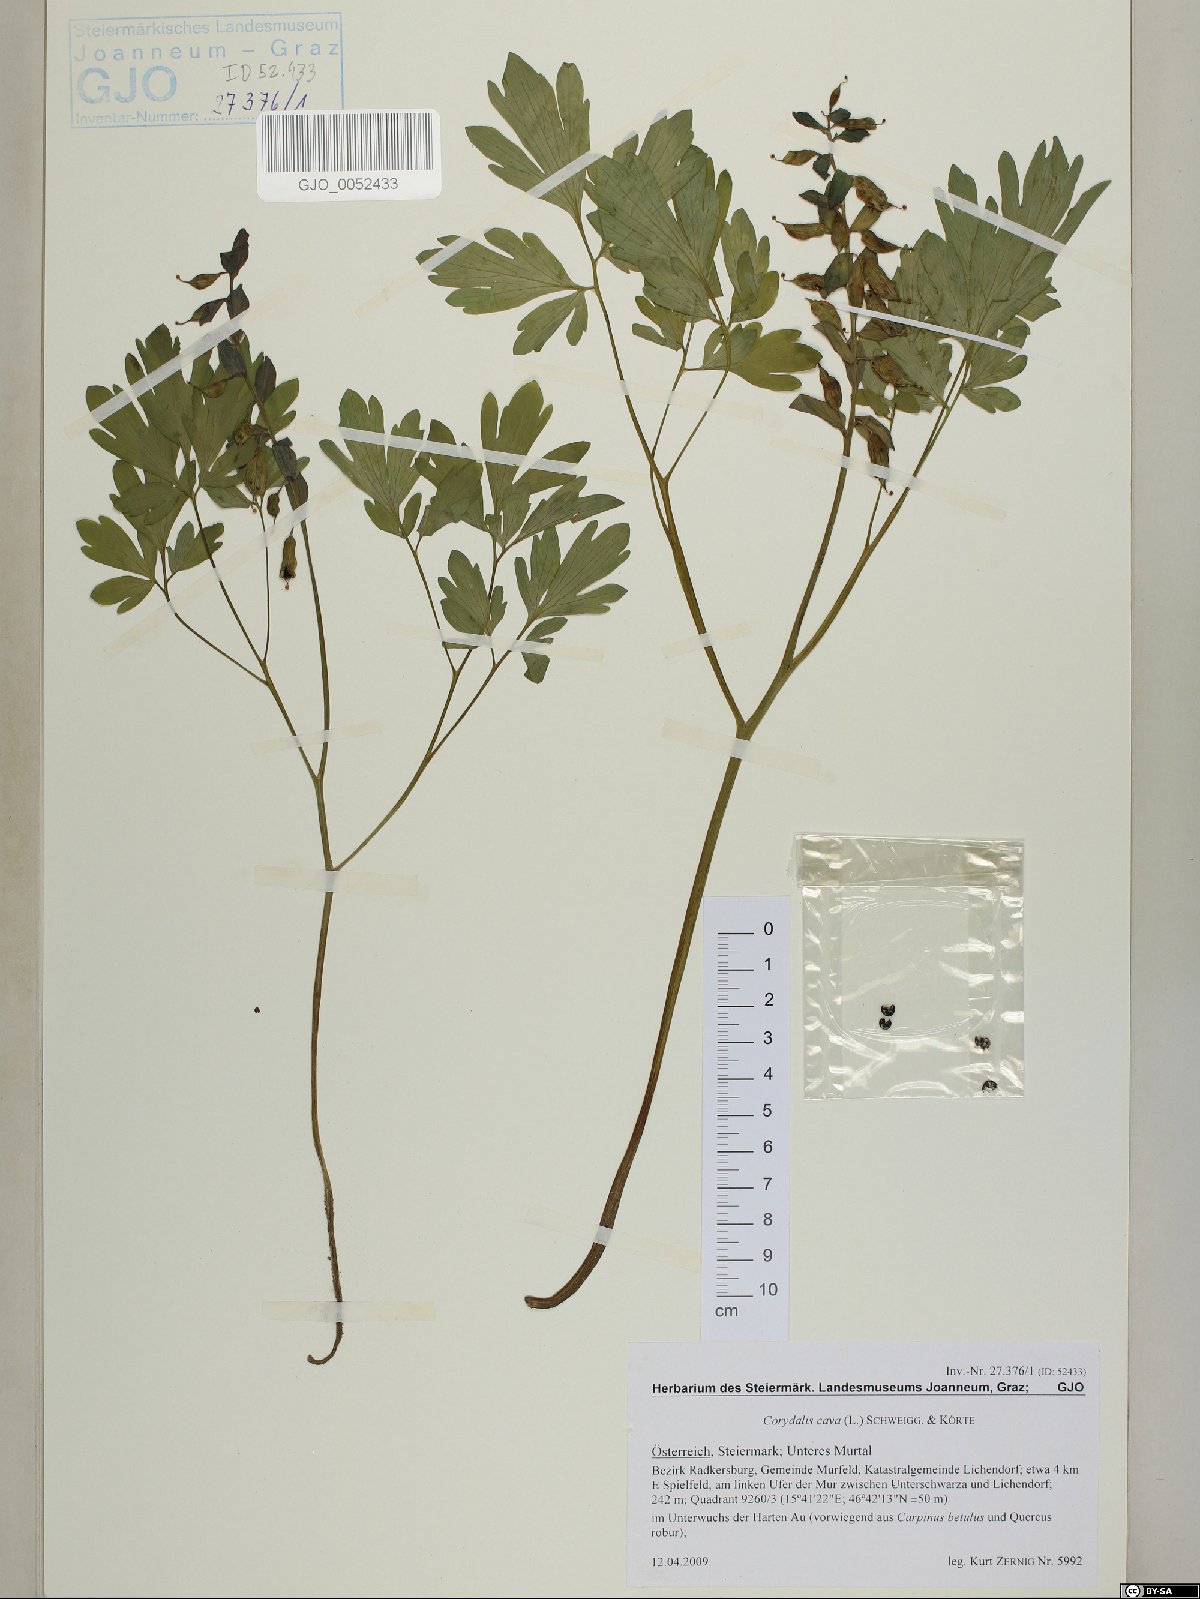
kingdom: Plantae
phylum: Tracheophyta
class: Magnoliopsida
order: Ranunculales
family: Papaveraceae
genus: Corydalis
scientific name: Corydalis cava
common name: Hollowroot
